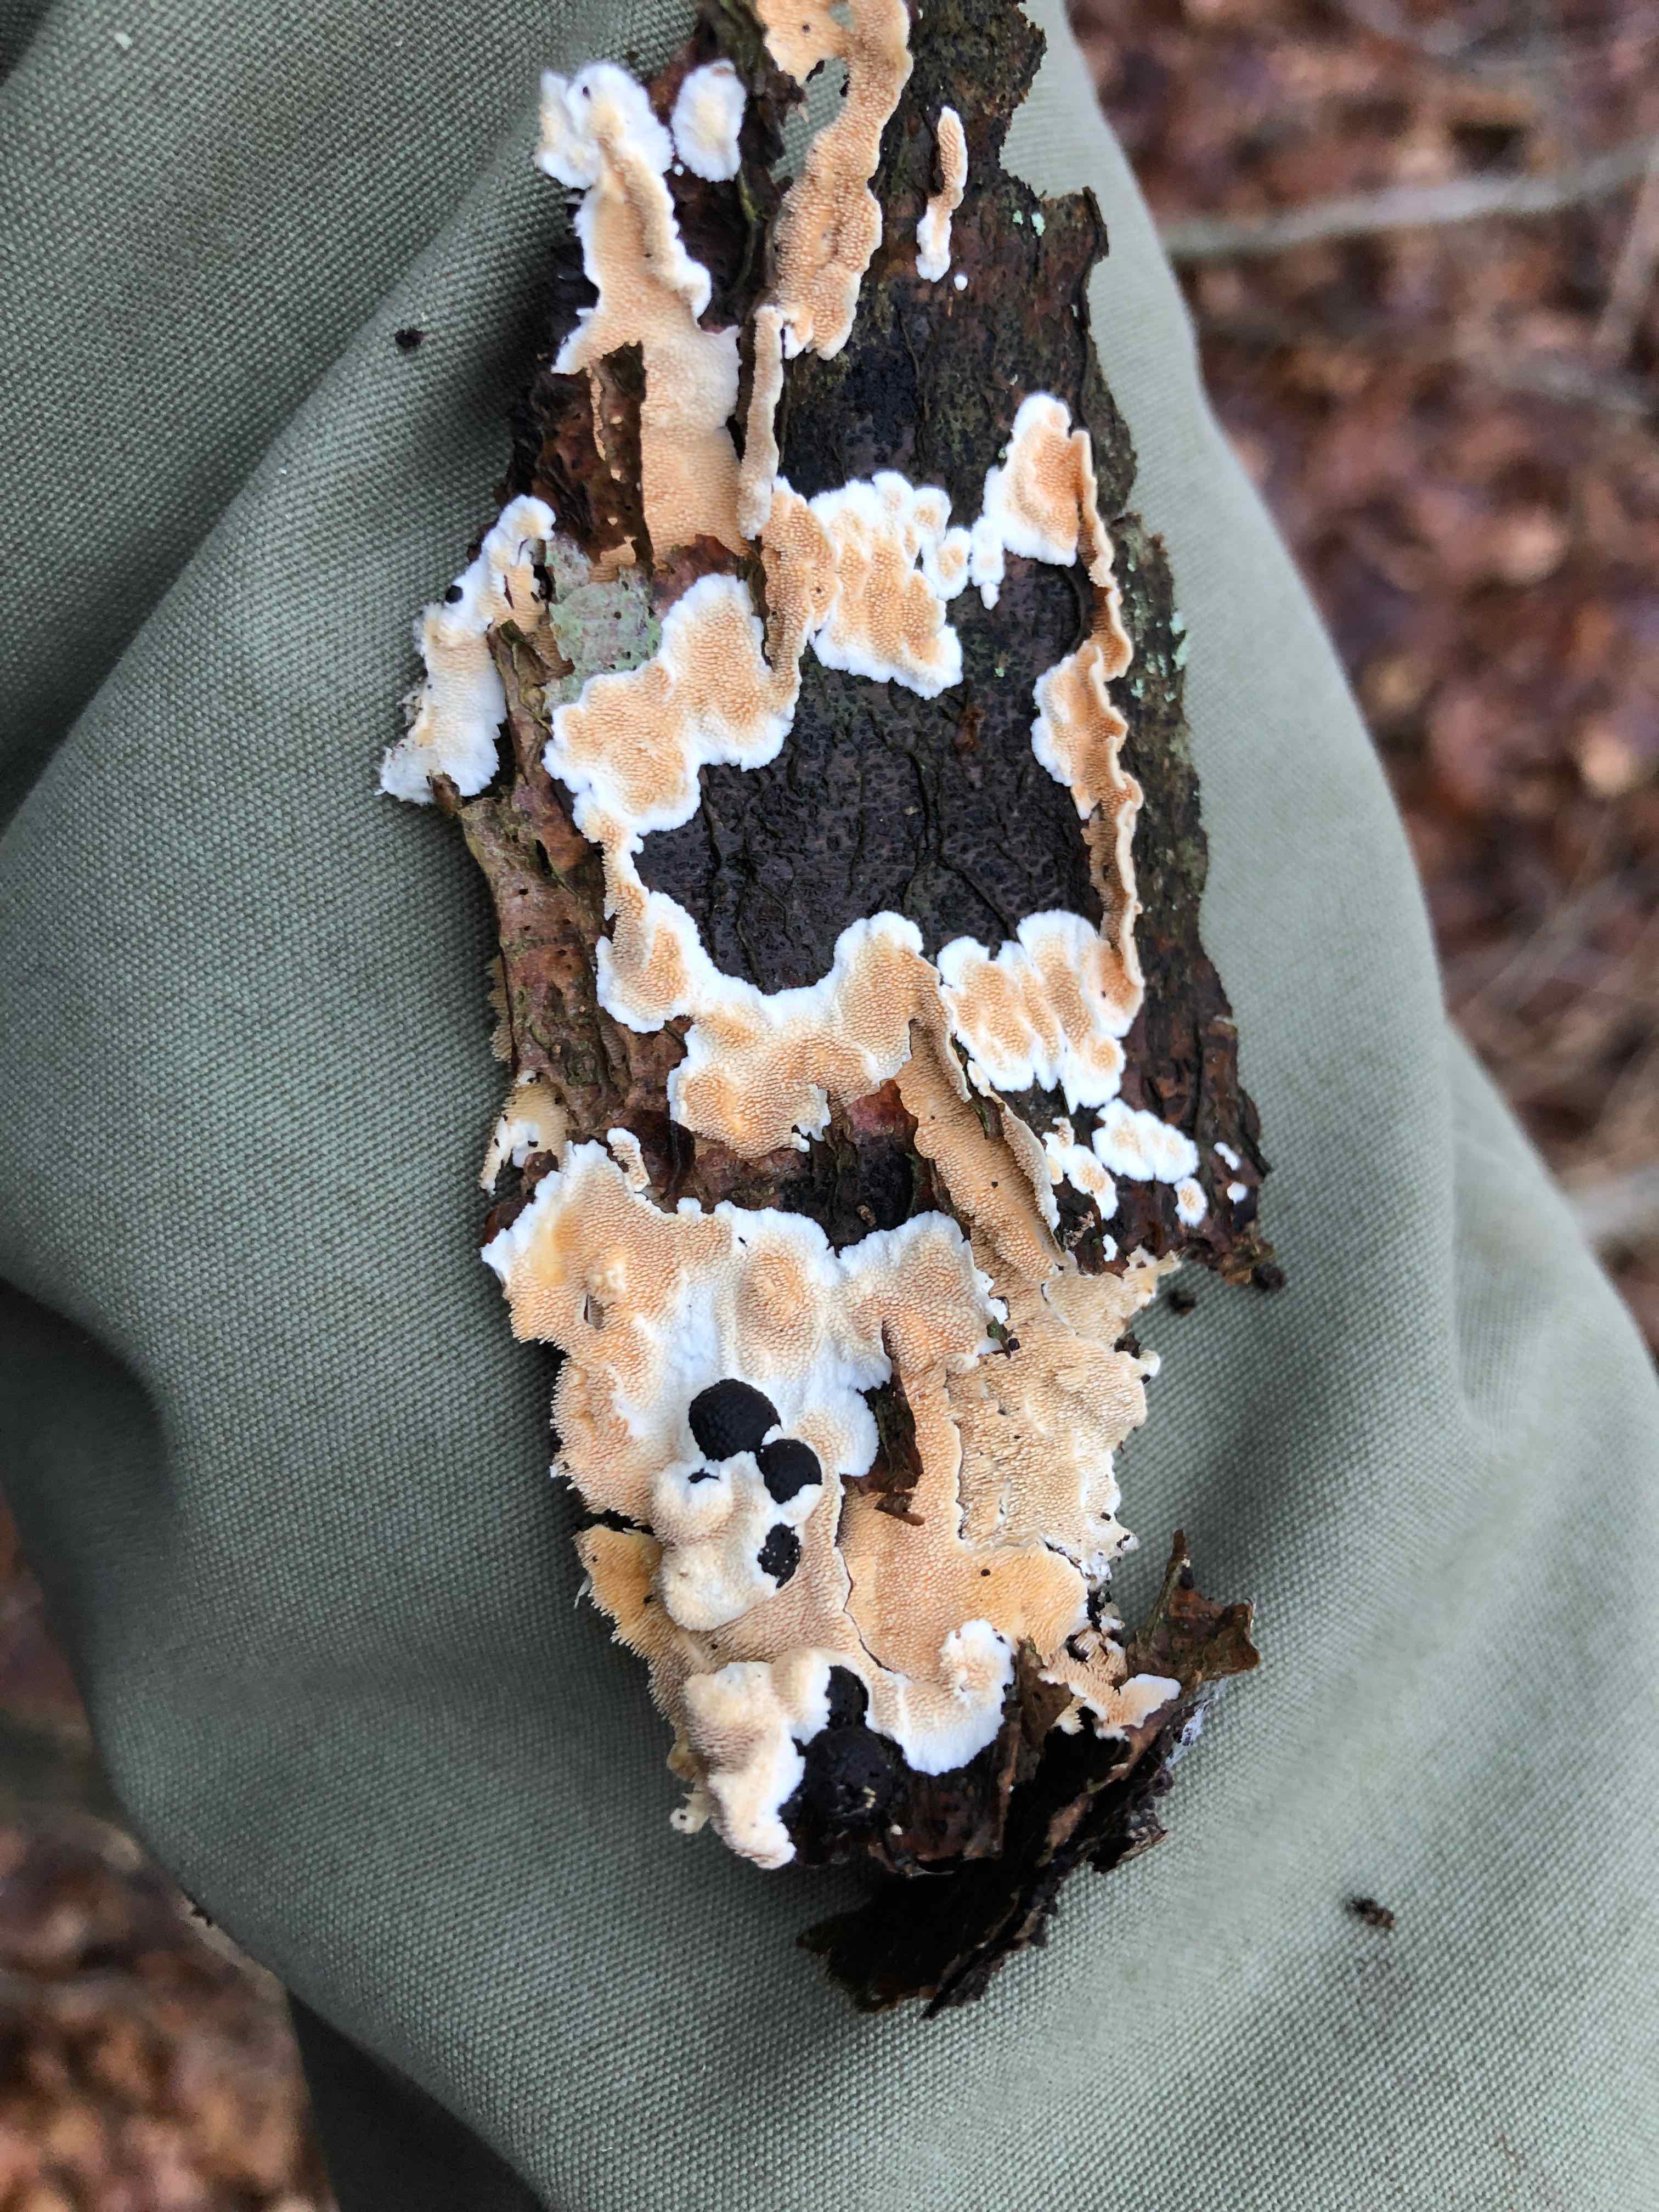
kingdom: Fungi
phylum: Basidiomycota
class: Agaricomycetes
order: Polyporales
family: Steccherinaceae
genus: Steccherinum
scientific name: Steccherinum ochraceum
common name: almindelig skønpig
